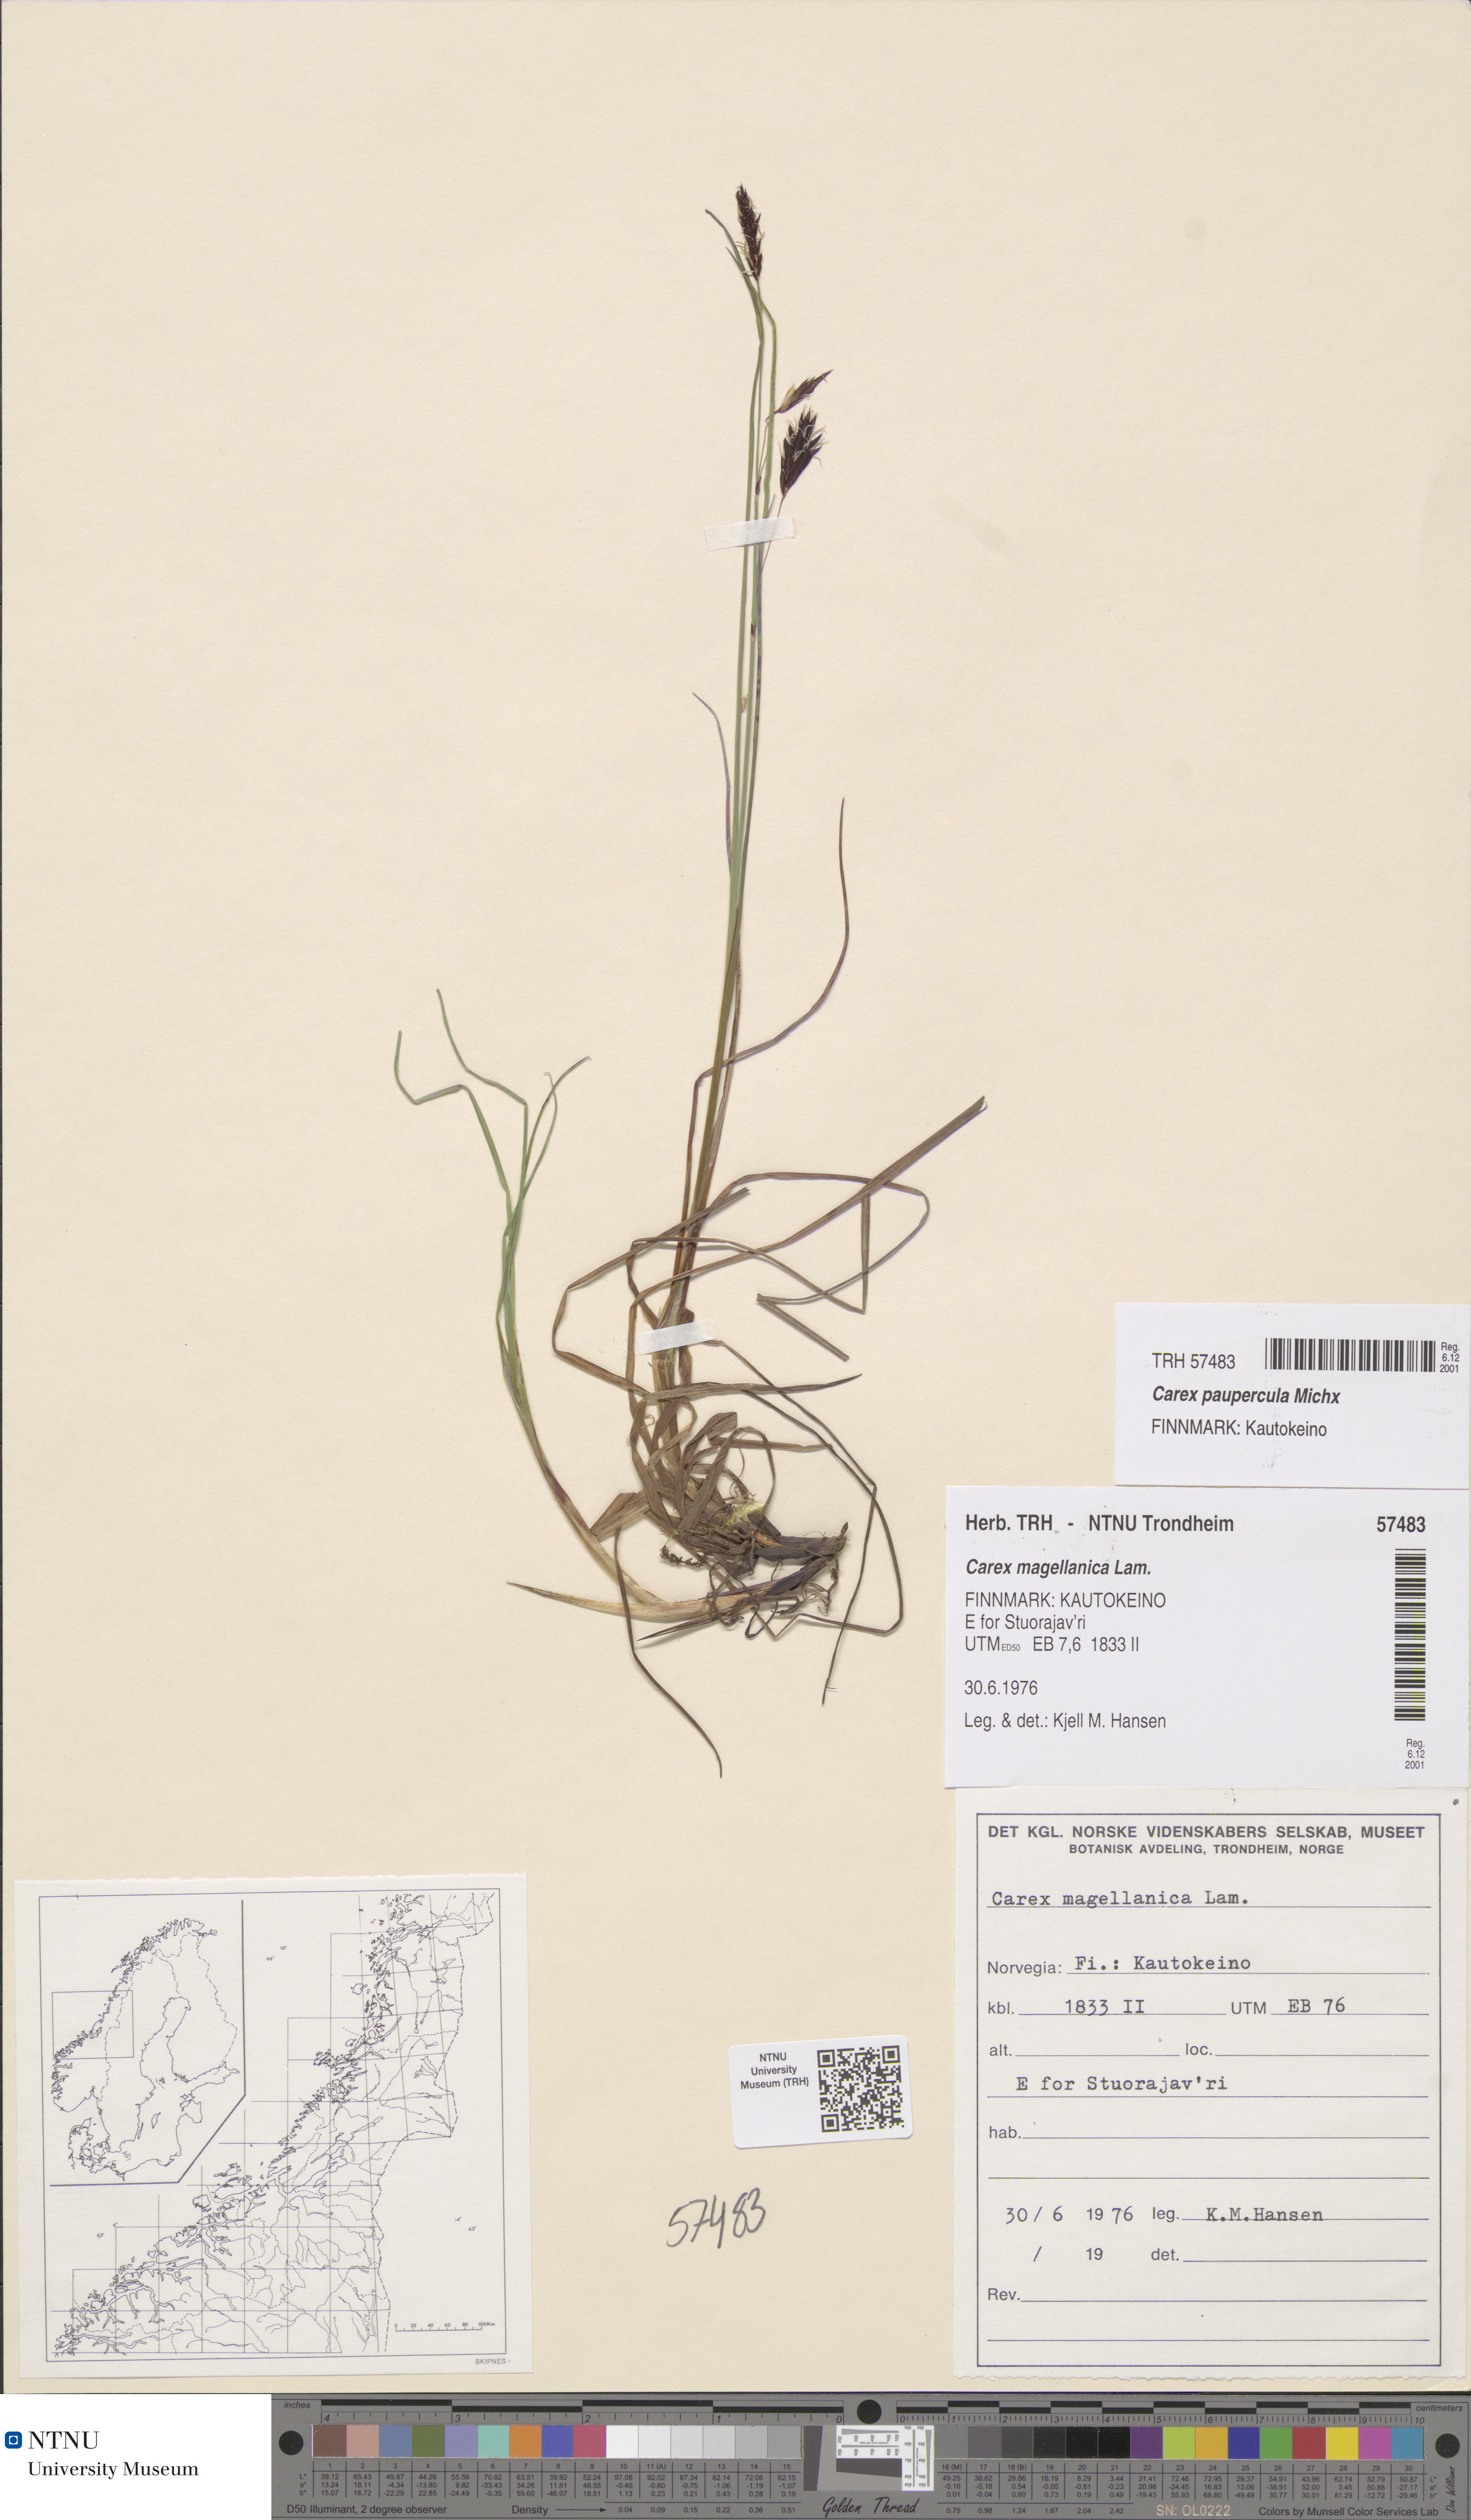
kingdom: Plantae
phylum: Tracheophyta
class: Liliopsida
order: Poales
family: Cyperaceae
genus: Carex
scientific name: Carex magellanica
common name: Bog sedge
